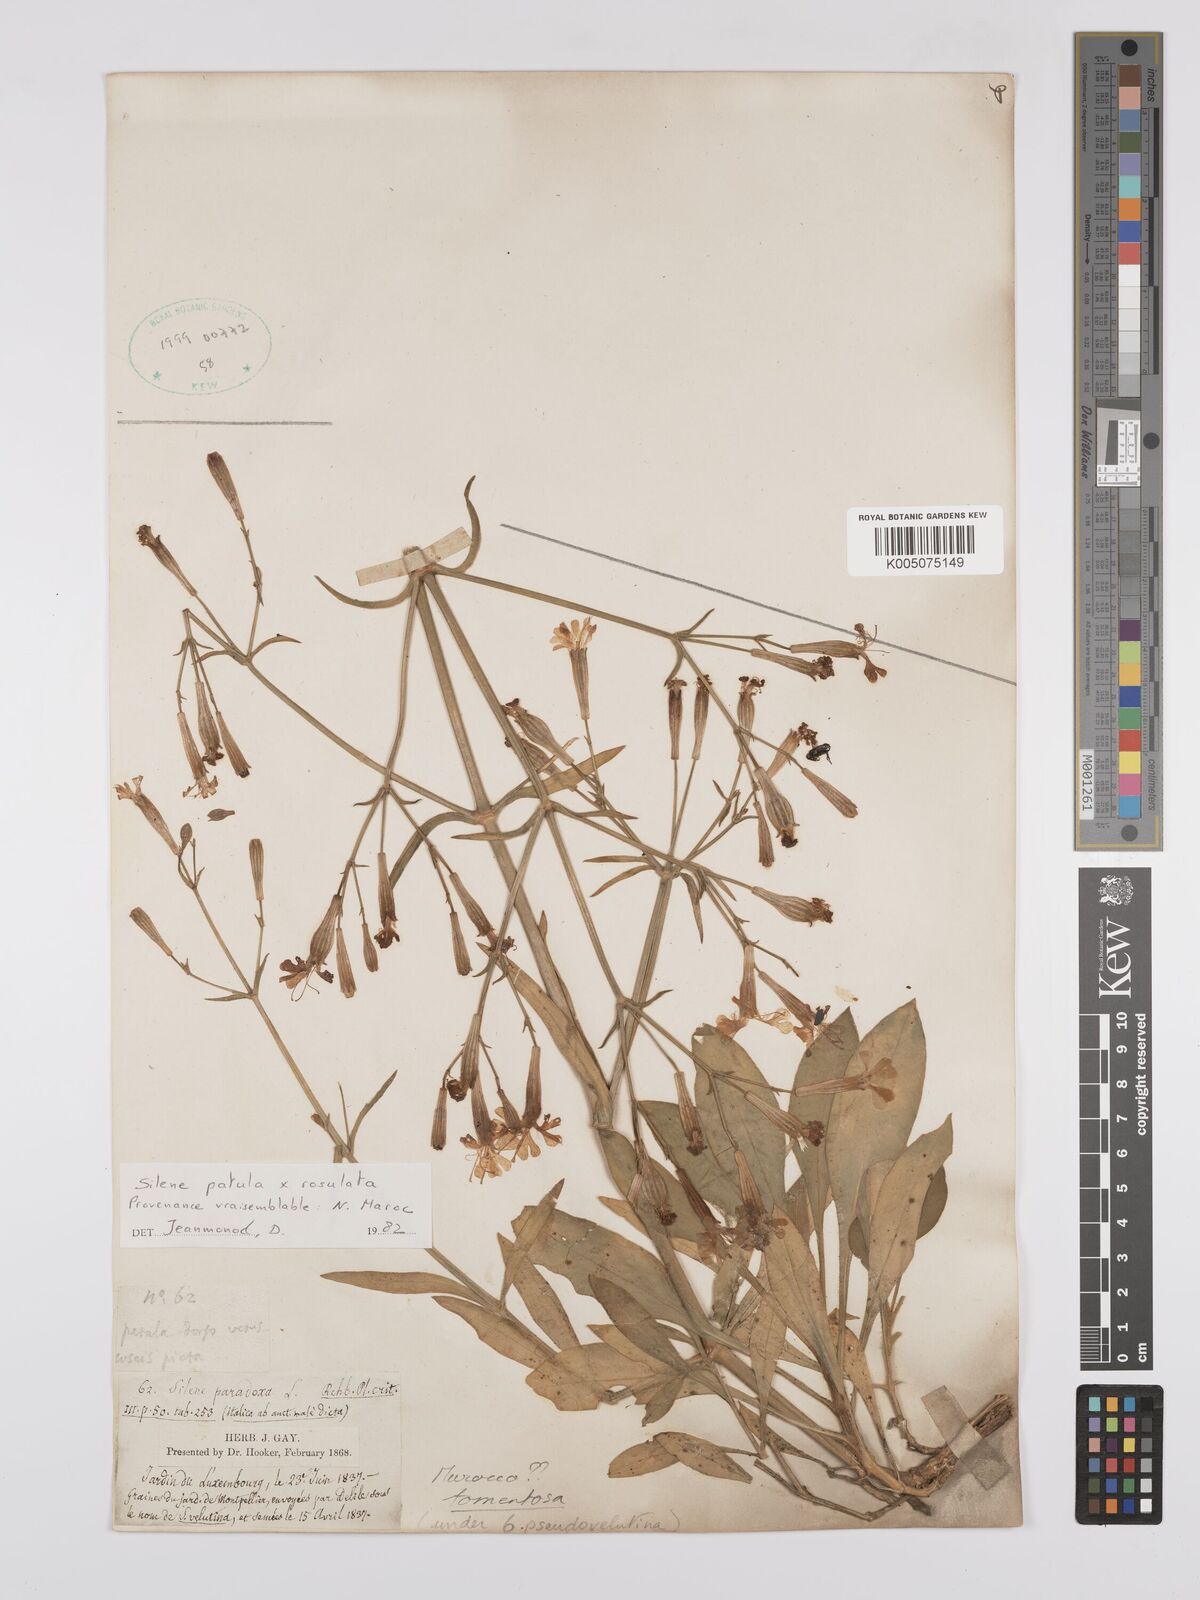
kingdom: Plantae
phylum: Tracheophyta
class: Magnoliopsida
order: Caryophyllales
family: Caryophyllaceae
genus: Silene
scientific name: Silene patula
